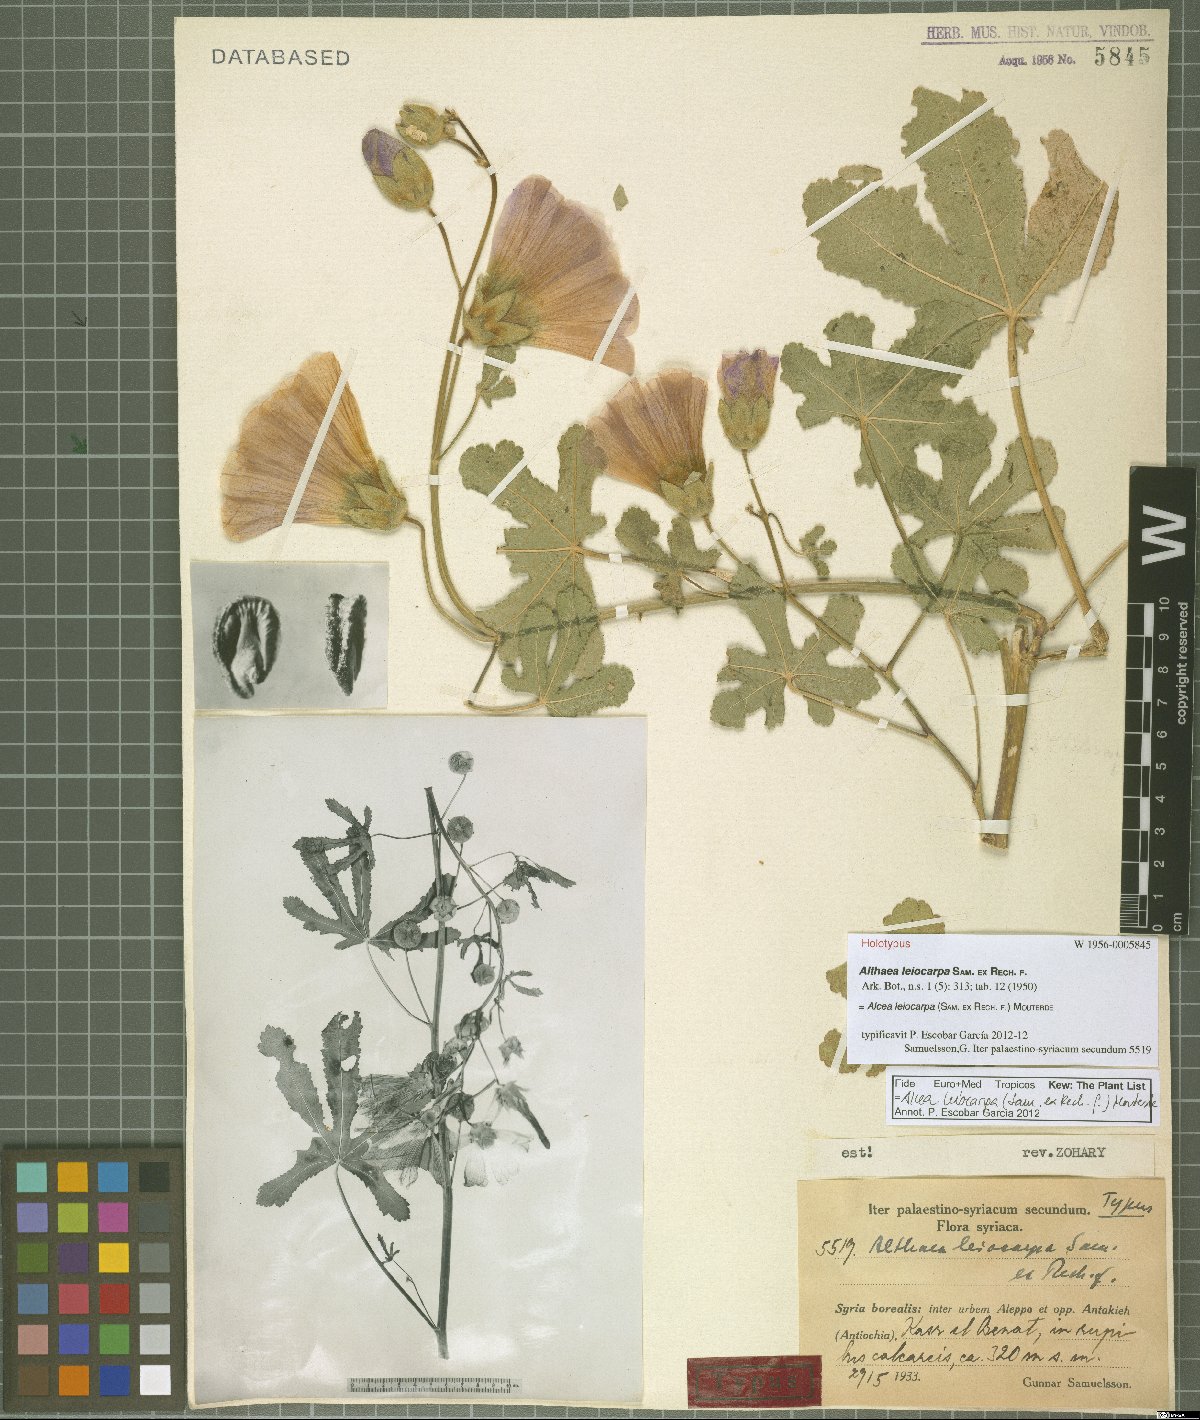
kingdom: Plantae
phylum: Tracheophyta
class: Magnoliopsida
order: Malvales
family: Malvaceae
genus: Alcea
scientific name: Alcea digitata
